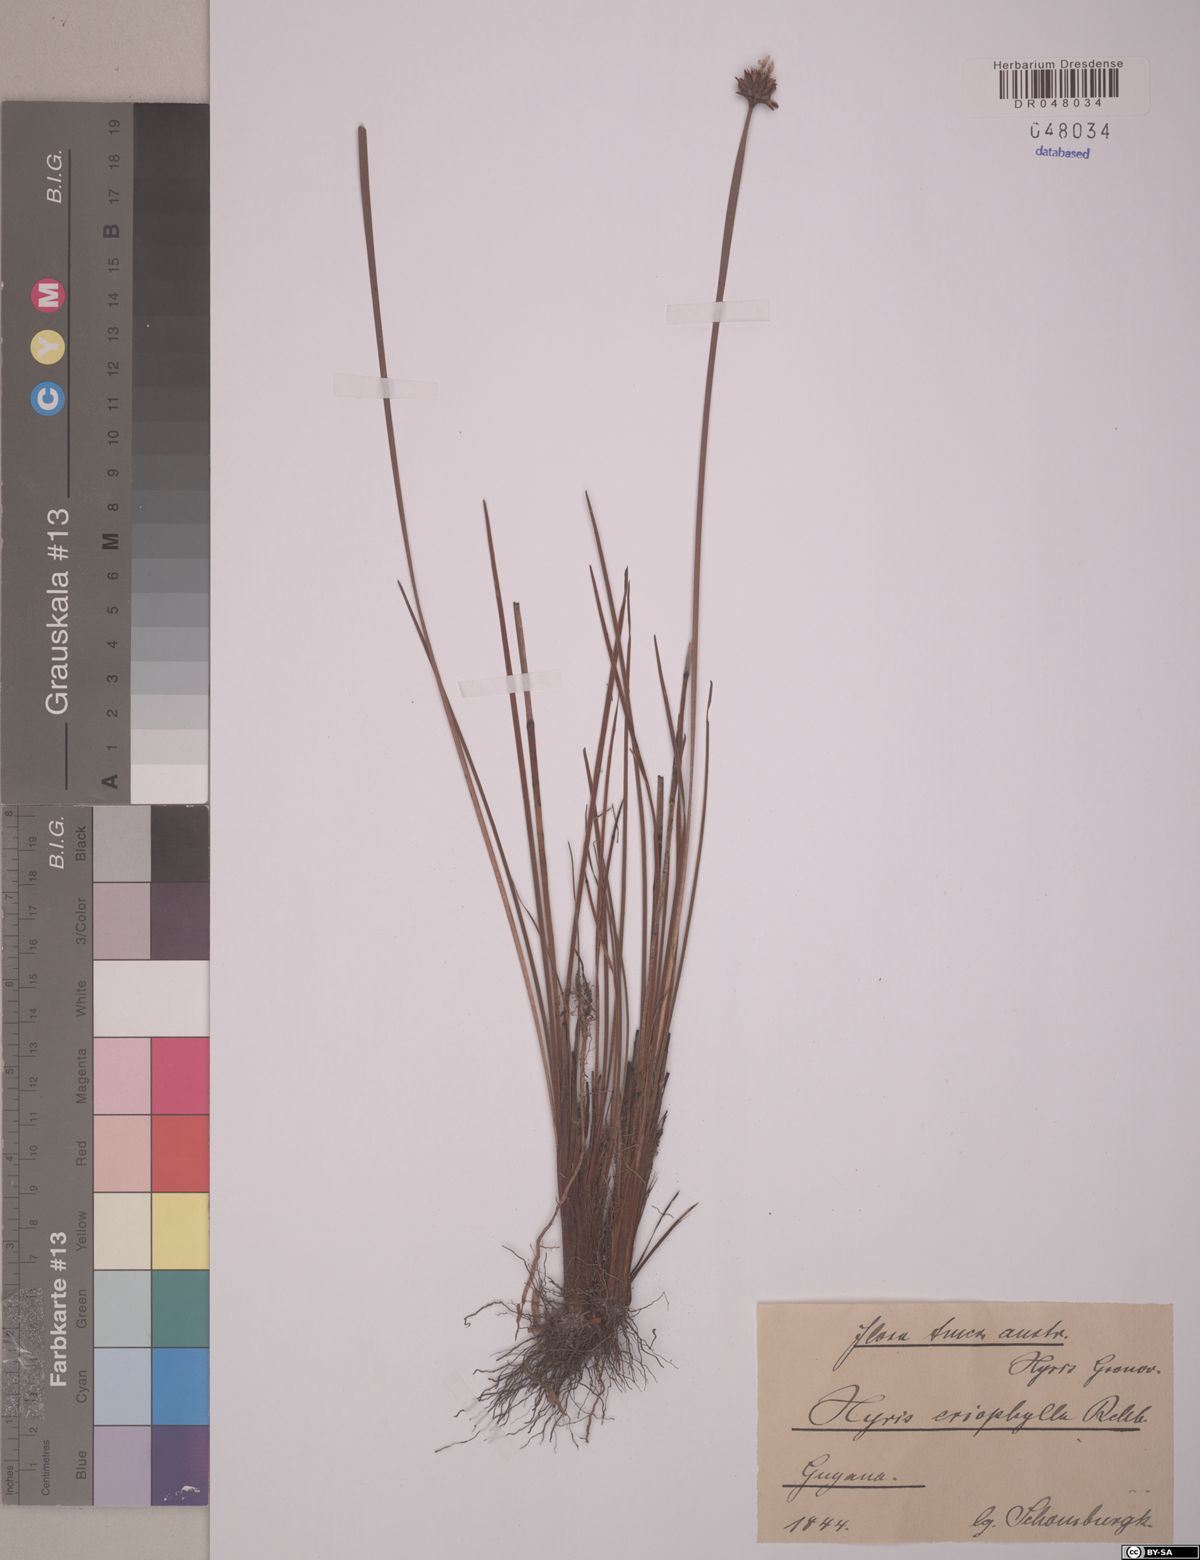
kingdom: Plantae
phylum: Tracheophyta
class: Liliopsida
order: Poales
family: Xyridaceae
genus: Xyris
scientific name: Xyris surinamensis
